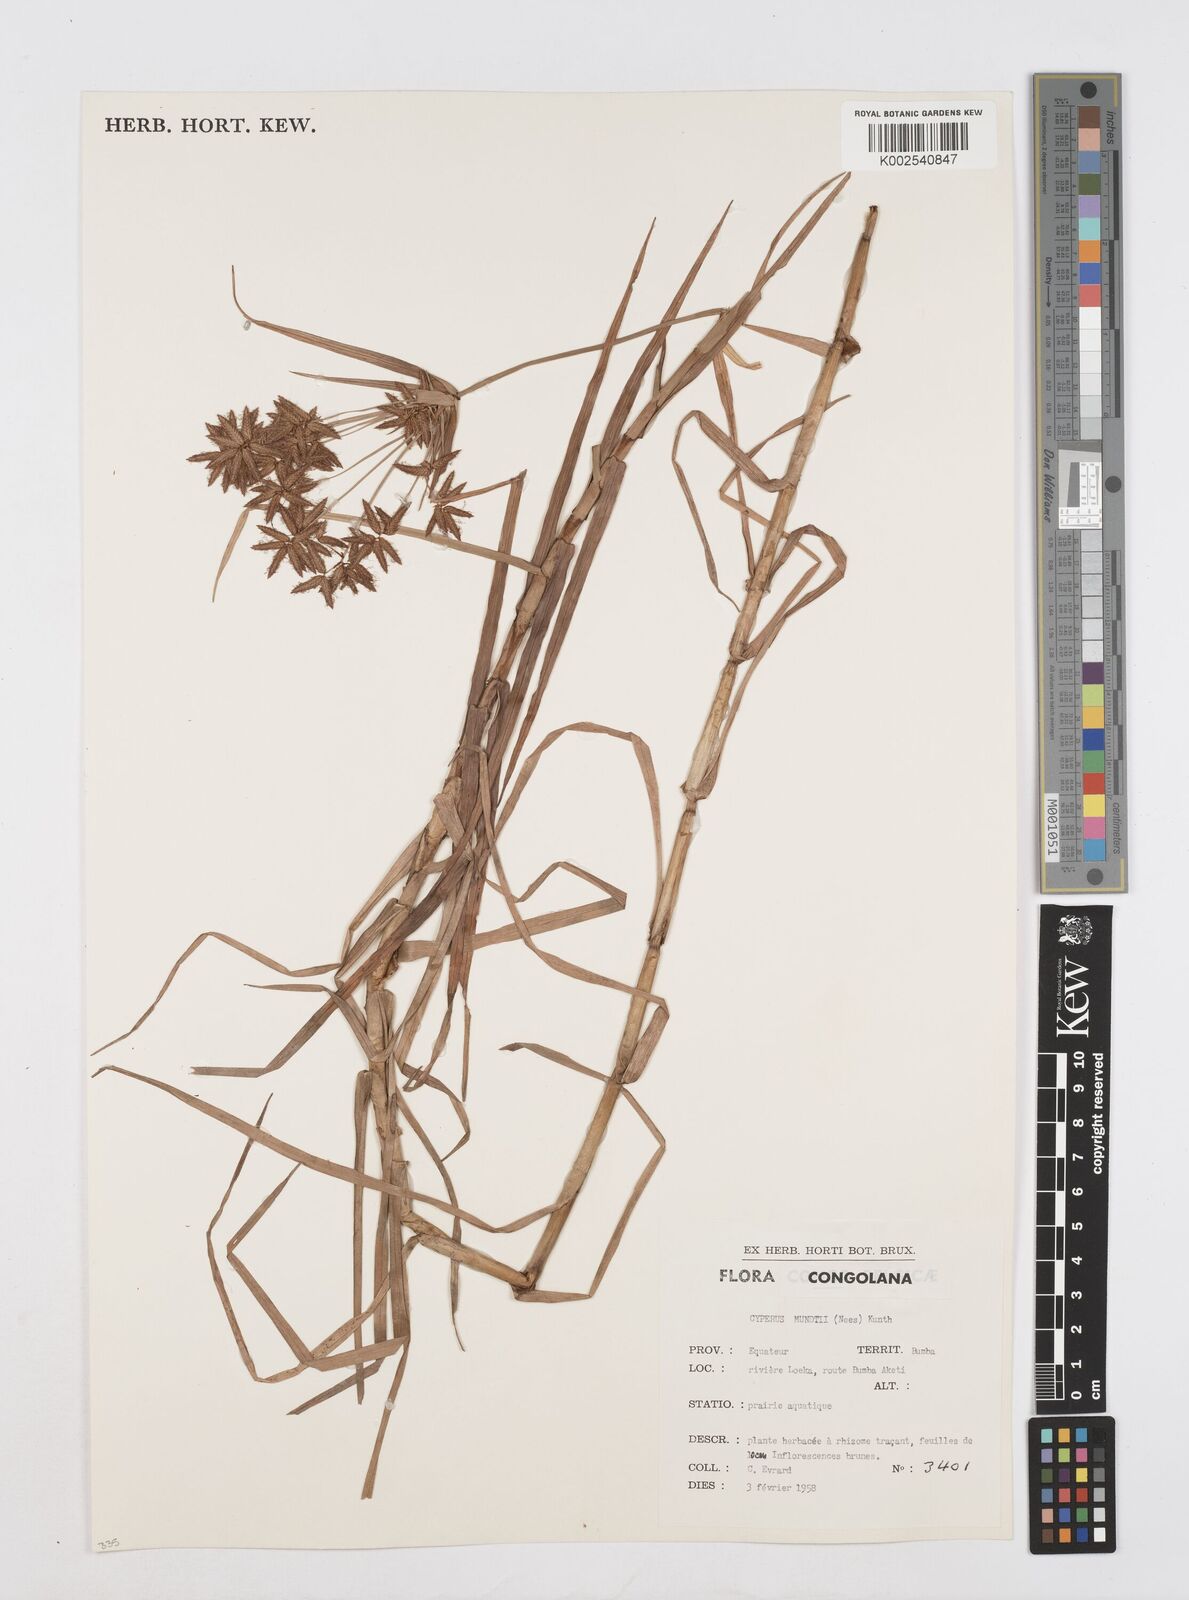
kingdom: Plantae
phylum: Tracheophyta
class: Liliopsida
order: Poales
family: Cyperaceae
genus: Cyperus
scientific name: Cyperus mundii
